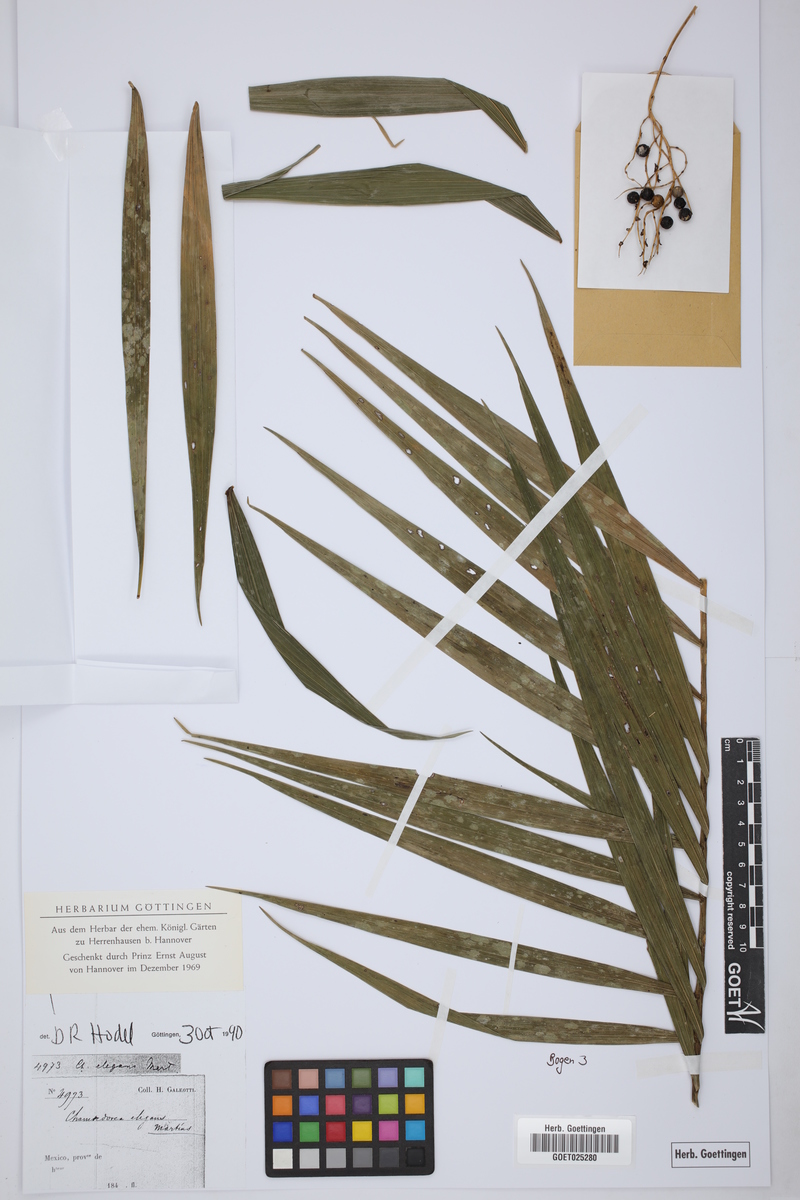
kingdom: Plantae
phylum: Tracheophyta
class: Liliopsida
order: Arecales
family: Arecaceae
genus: Chamaedorea
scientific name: Chamaedorea elegans
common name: Good-luck palm
